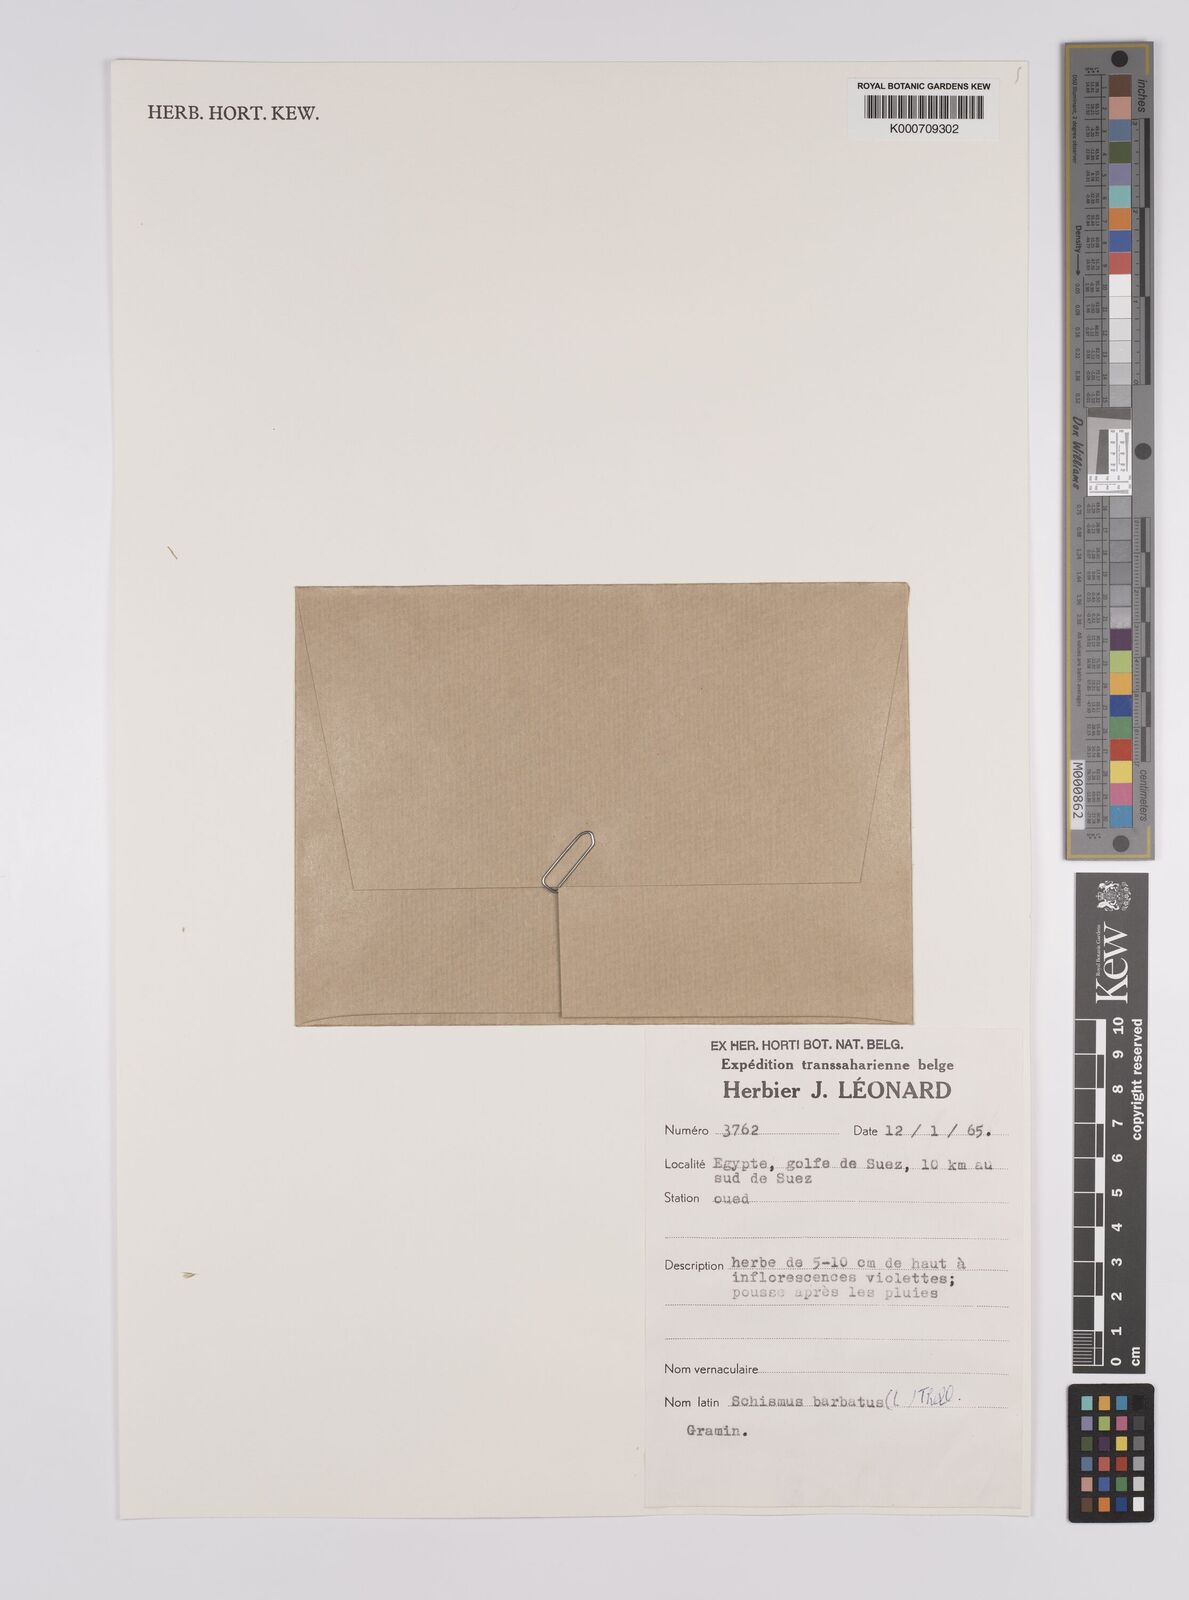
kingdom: Plantae
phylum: Tracheophyta
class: Liliopsida
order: Poales
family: Poaceae
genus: Schismus
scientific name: Schismus barbatus
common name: Kelch-grass
